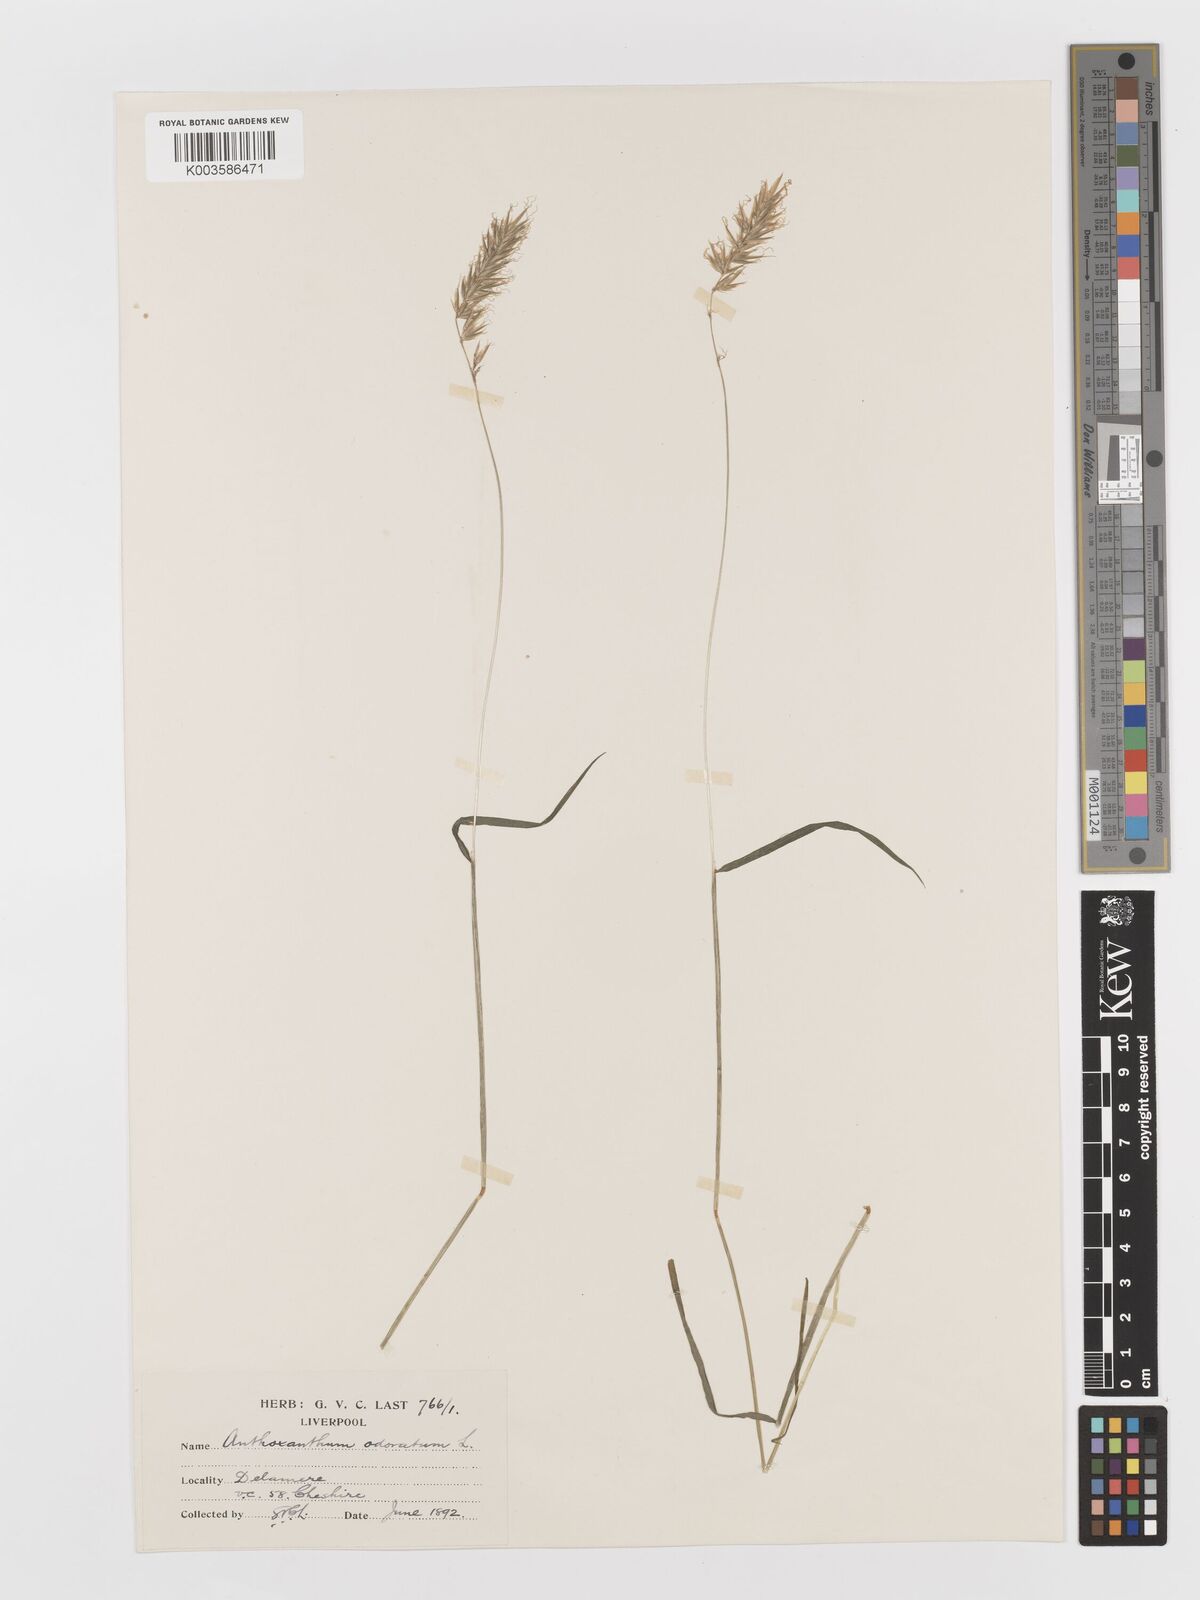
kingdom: Plantae
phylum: Tracheophyta
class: Liliopsida
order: Poales
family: Poaceae
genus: Anthoxanthum
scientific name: Anthoxanthum odoratum
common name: Sweet vernalgrass
